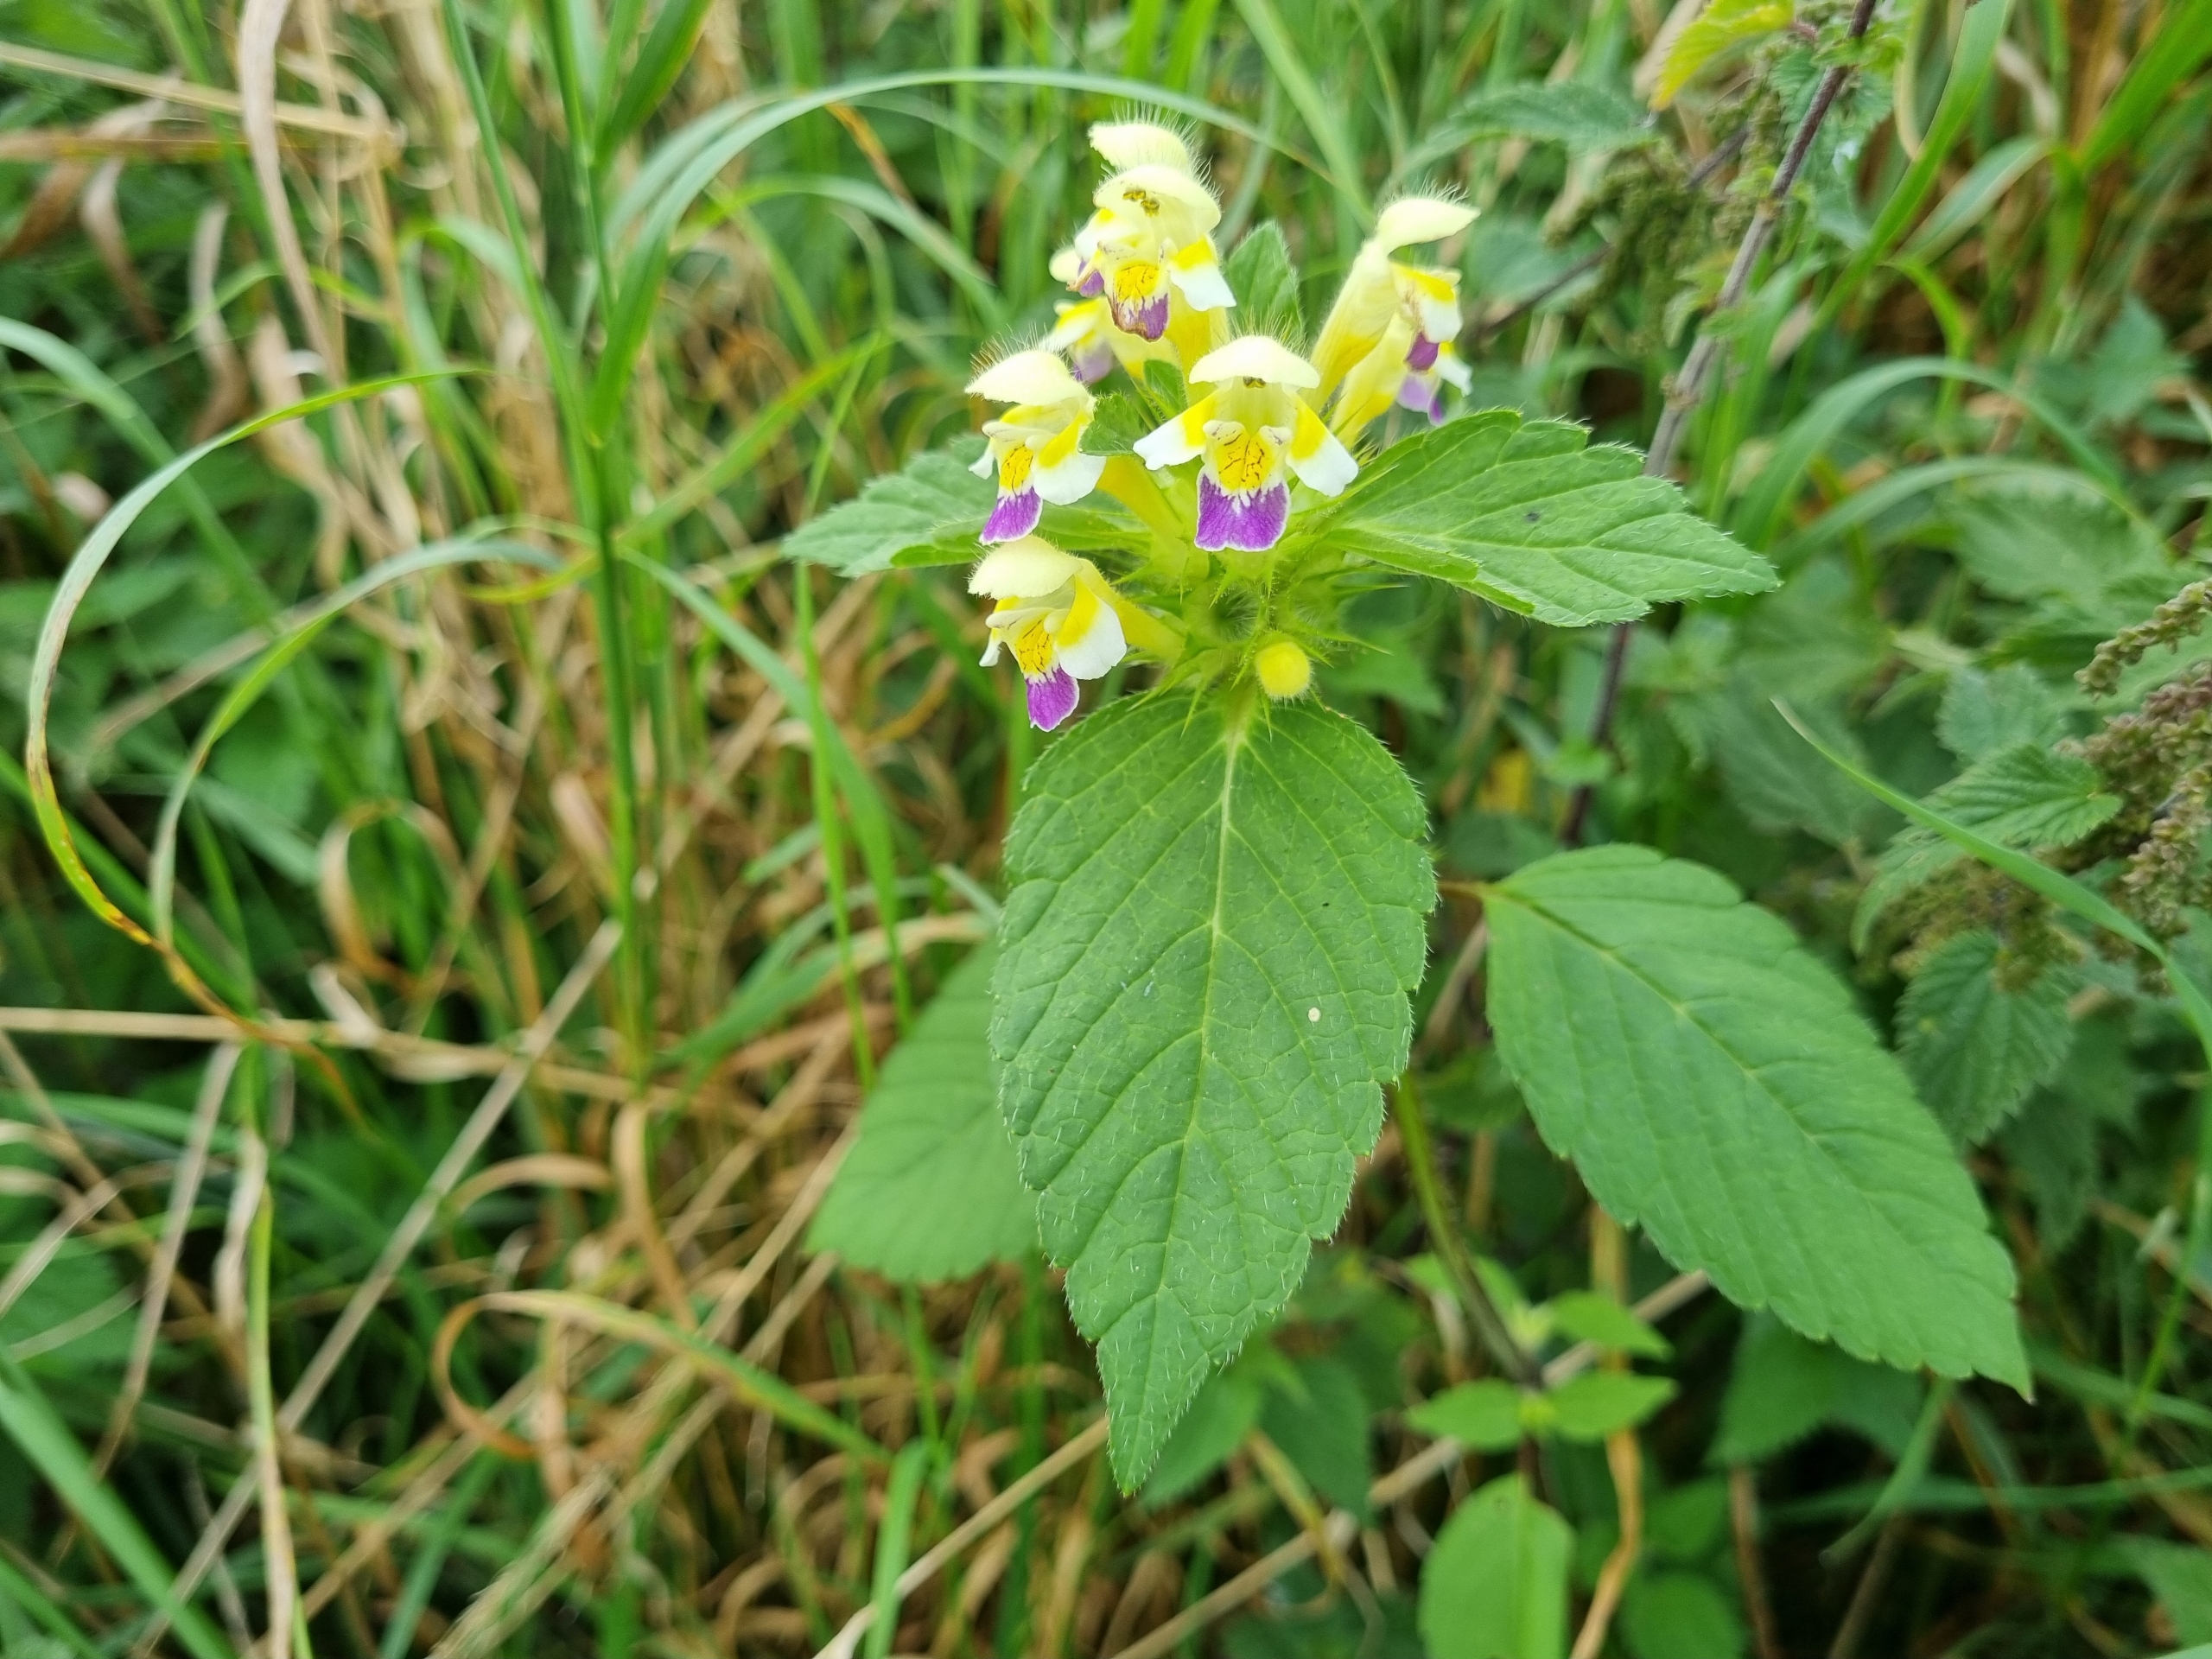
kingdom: Plantae
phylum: Tracheophyta
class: Magnoliopsida
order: Lamiales
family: Lamiaceae
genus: Galeopsis
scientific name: Galeopsis speciosa
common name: Hamp-hanekro
